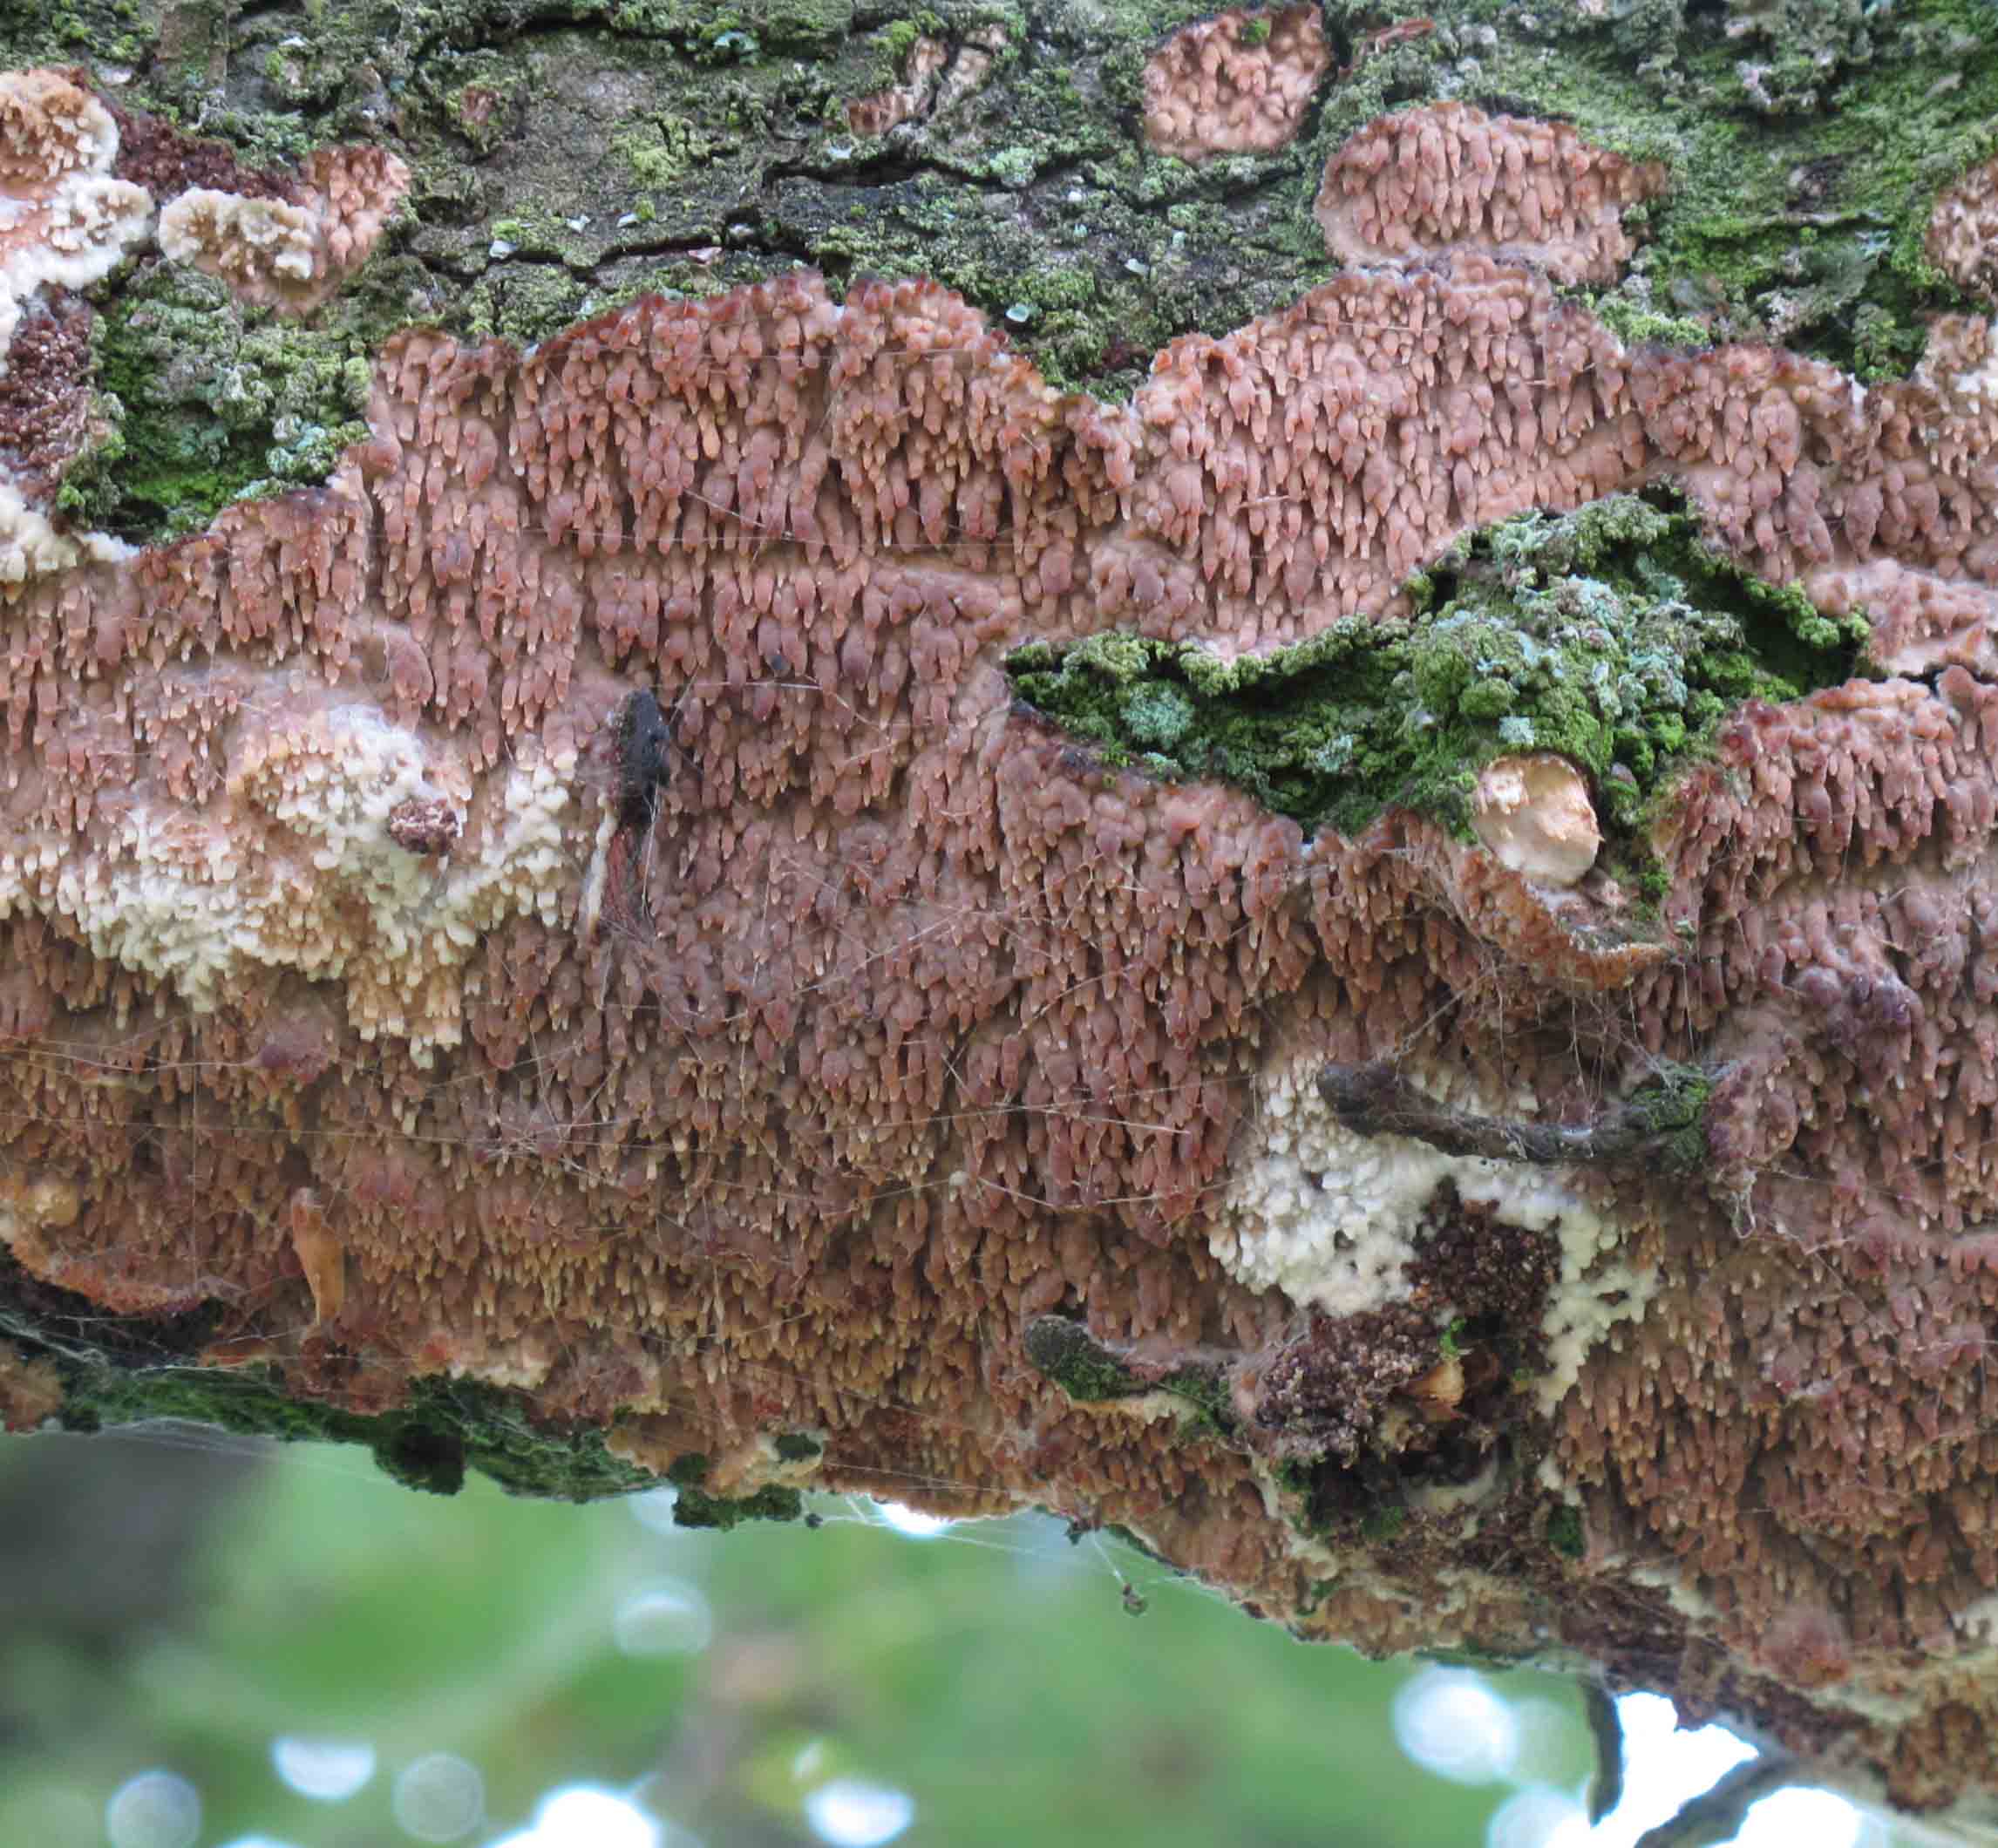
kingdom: Fungi
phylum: Basidiomycota
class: Agaricomycetes
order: Agaricales
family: Radulomycetaceae
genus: Radulomyces
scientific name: Radulomyces molaris
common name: tandet naftalinskind
